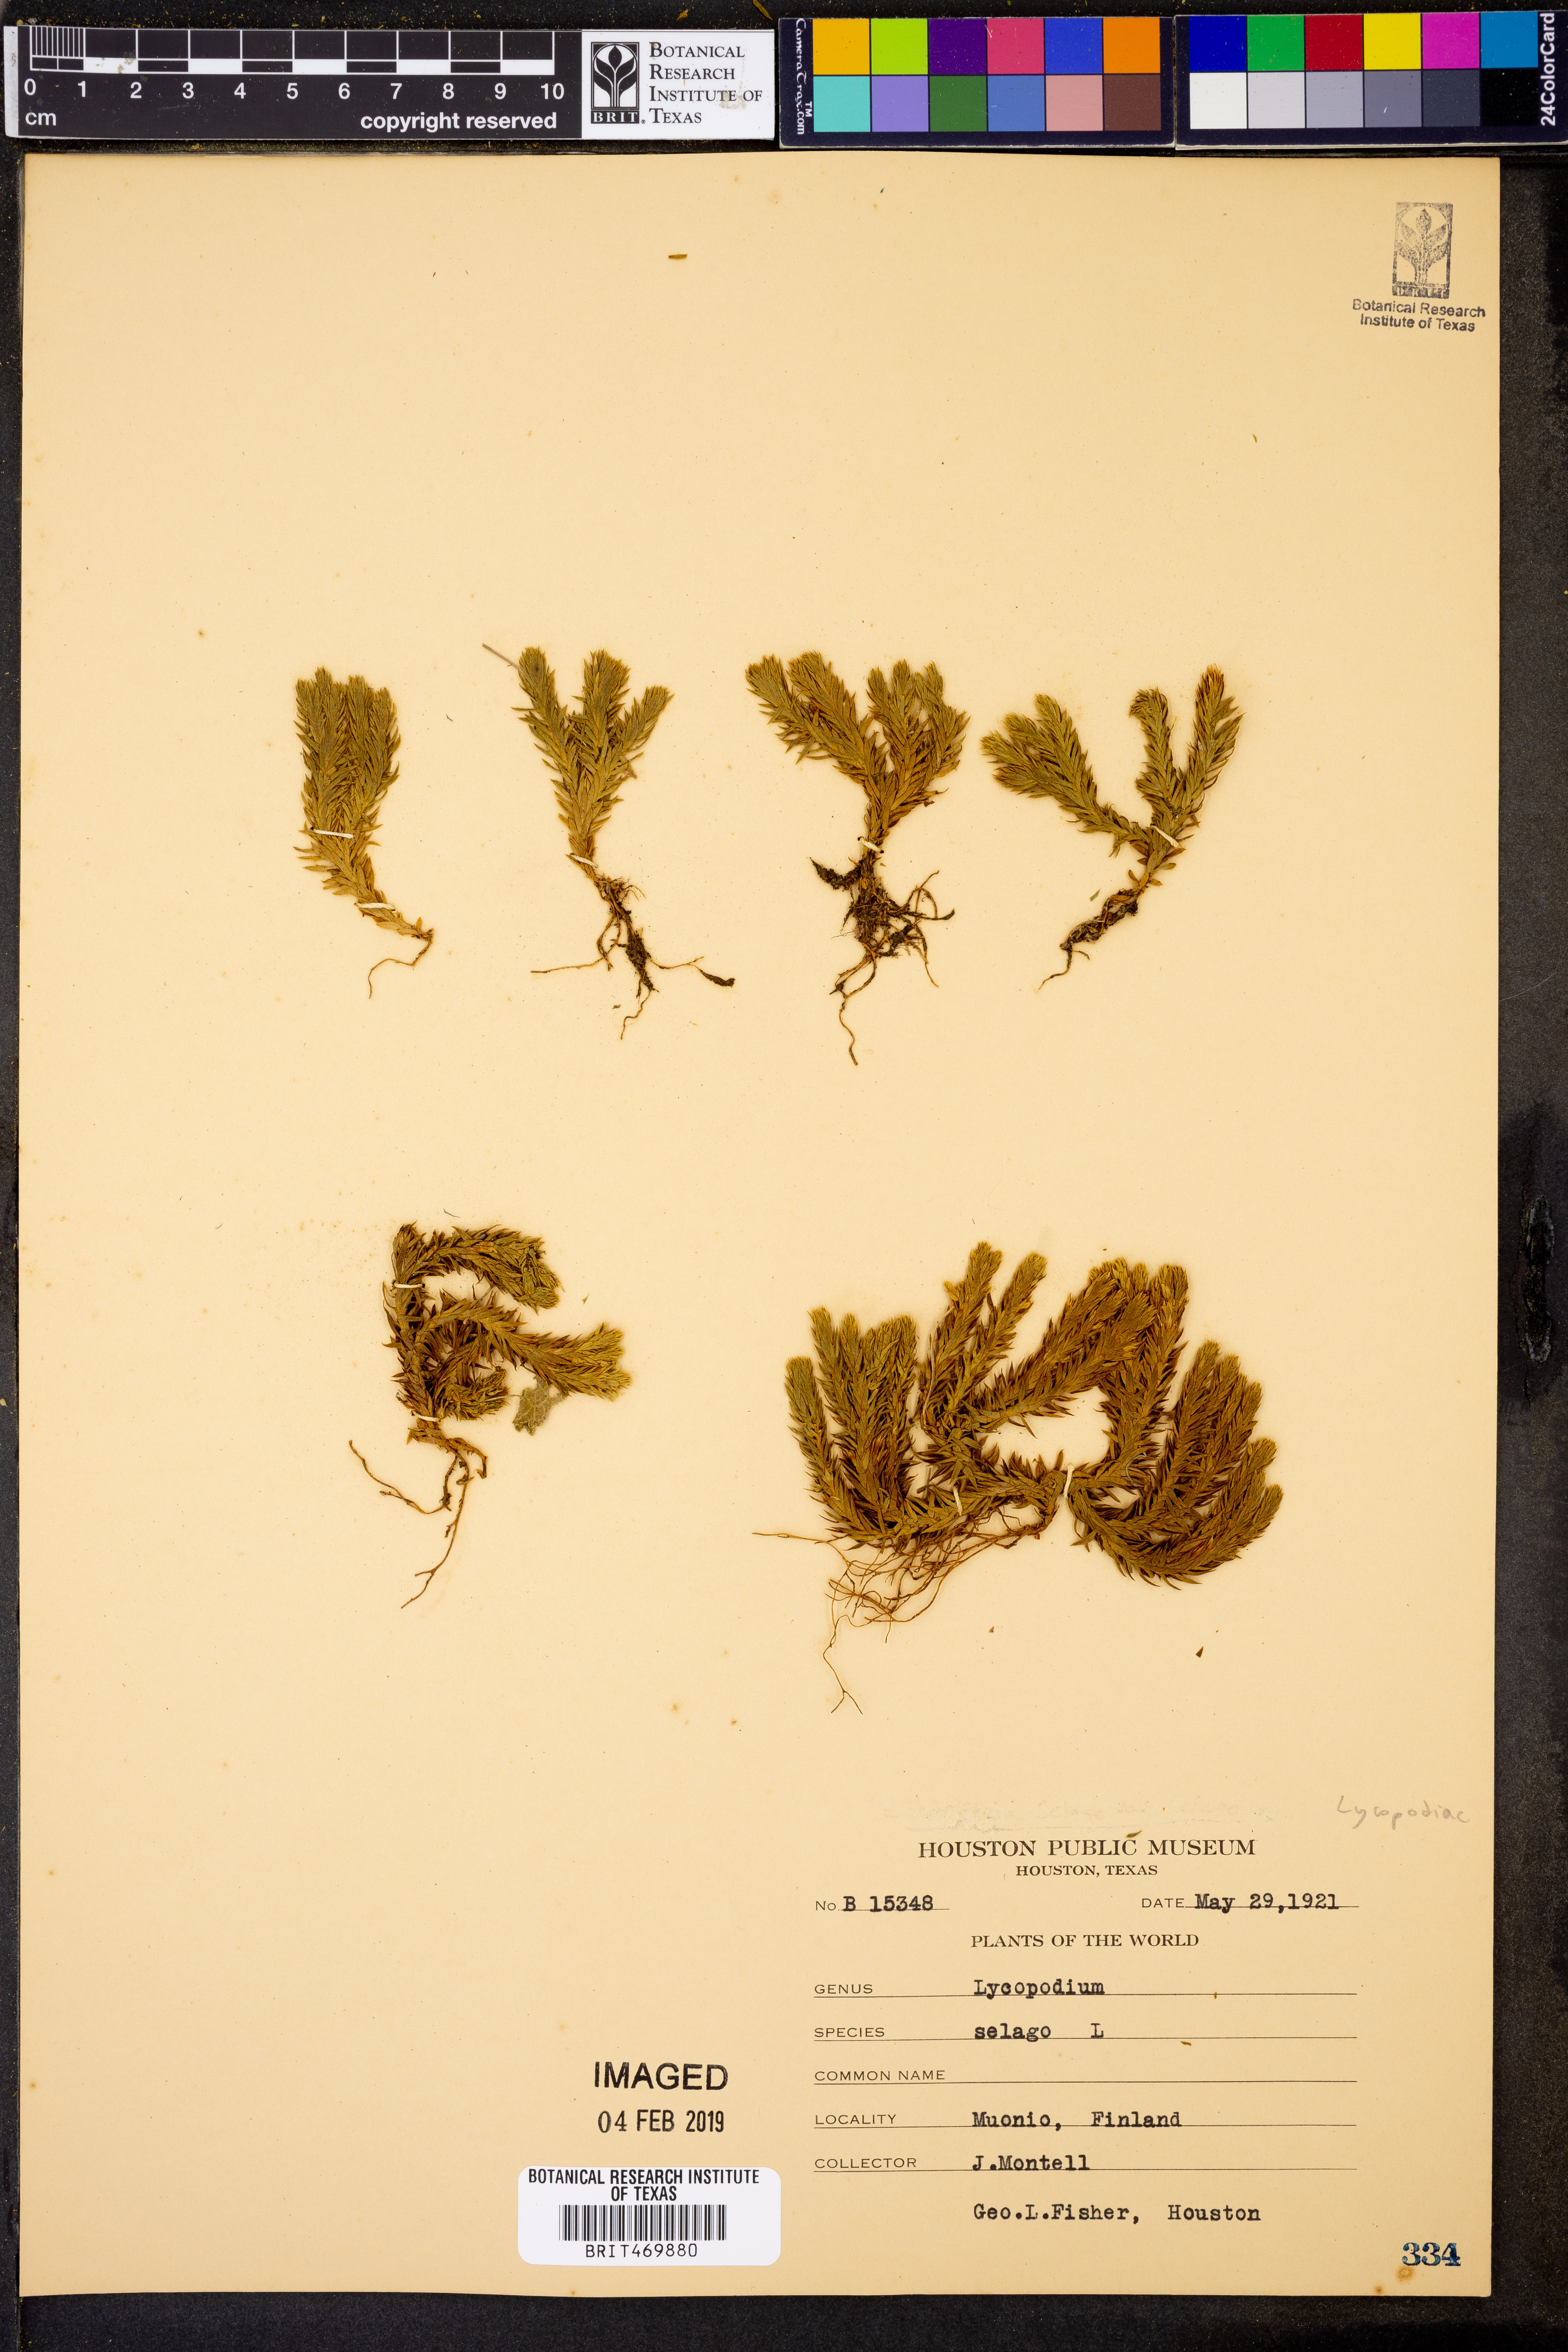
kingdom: Plantae
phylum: Tracheophyta
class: Lycopodiopsida
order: Lycopodiales
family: Lycopodiaceae
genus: Huperzia
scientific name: Huperzia selago
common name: Northern firmoss
